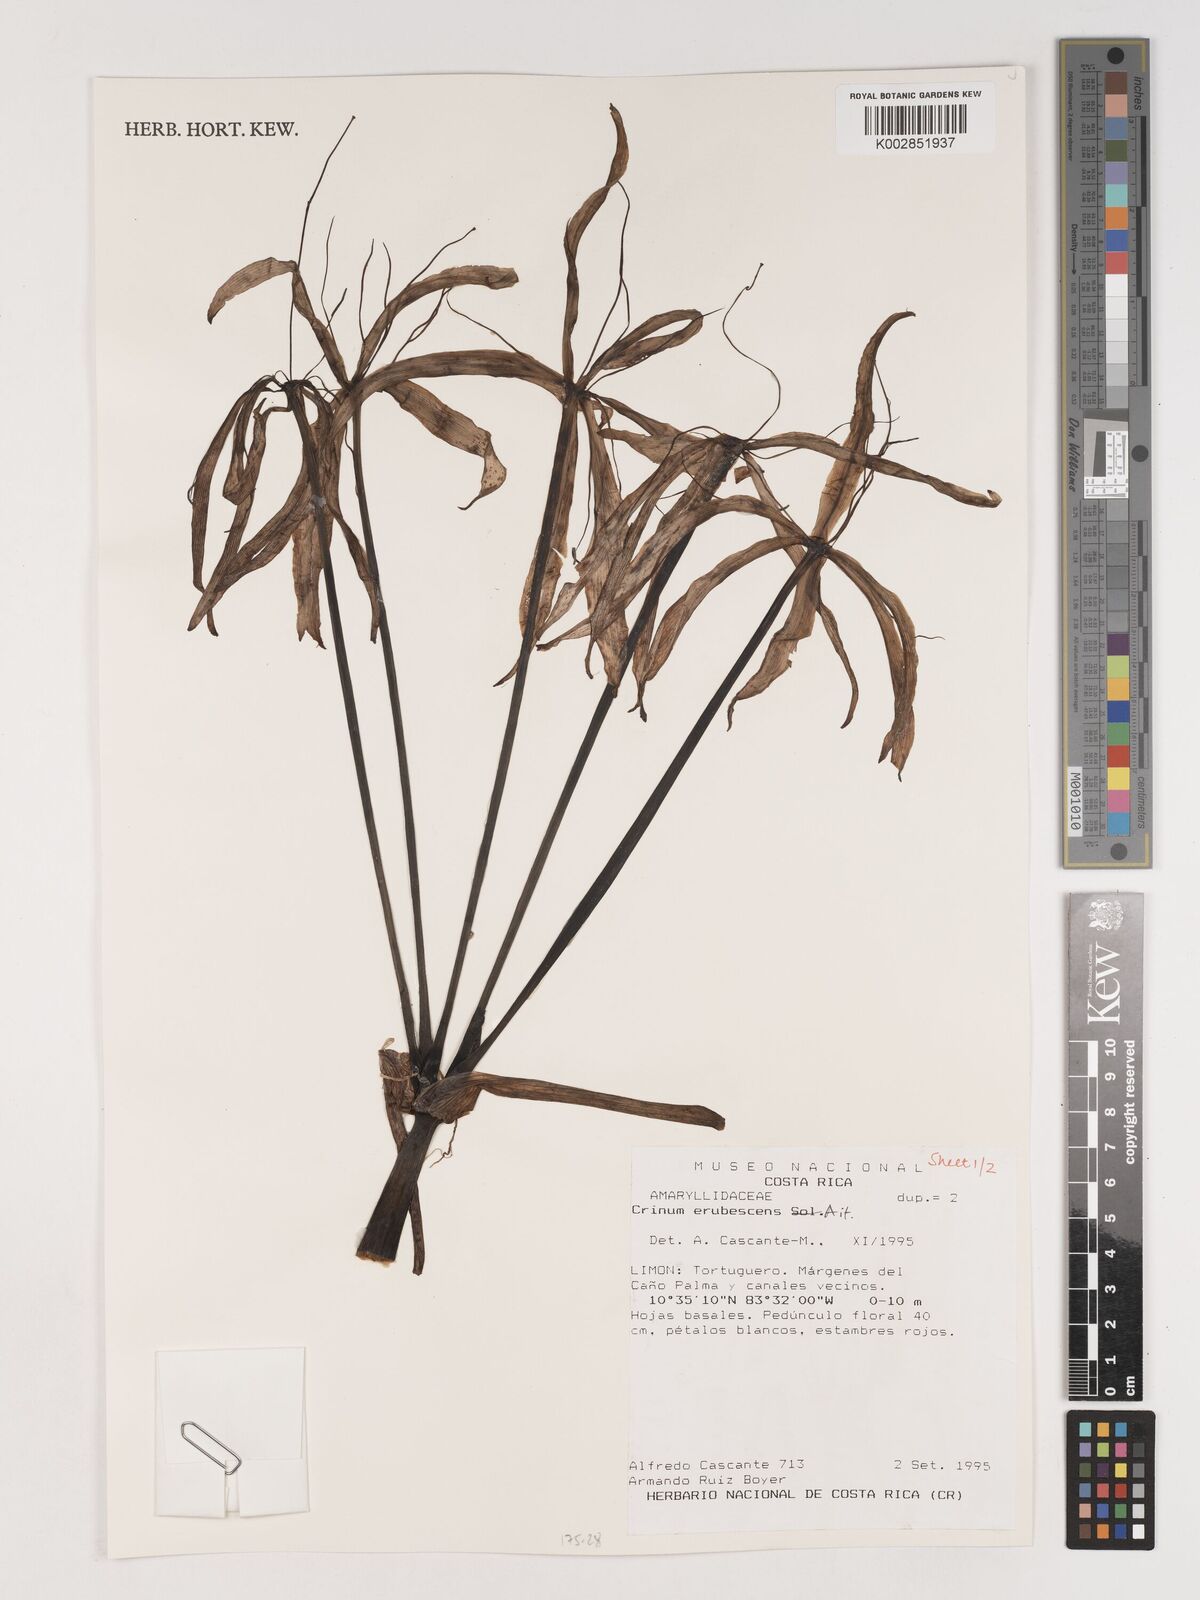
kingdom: Plantae
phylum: Tracheophyta
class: Liliopsida
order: Asparagales
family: Amaryllidaceae
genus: Crinum
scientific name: Crinum kunthianum
